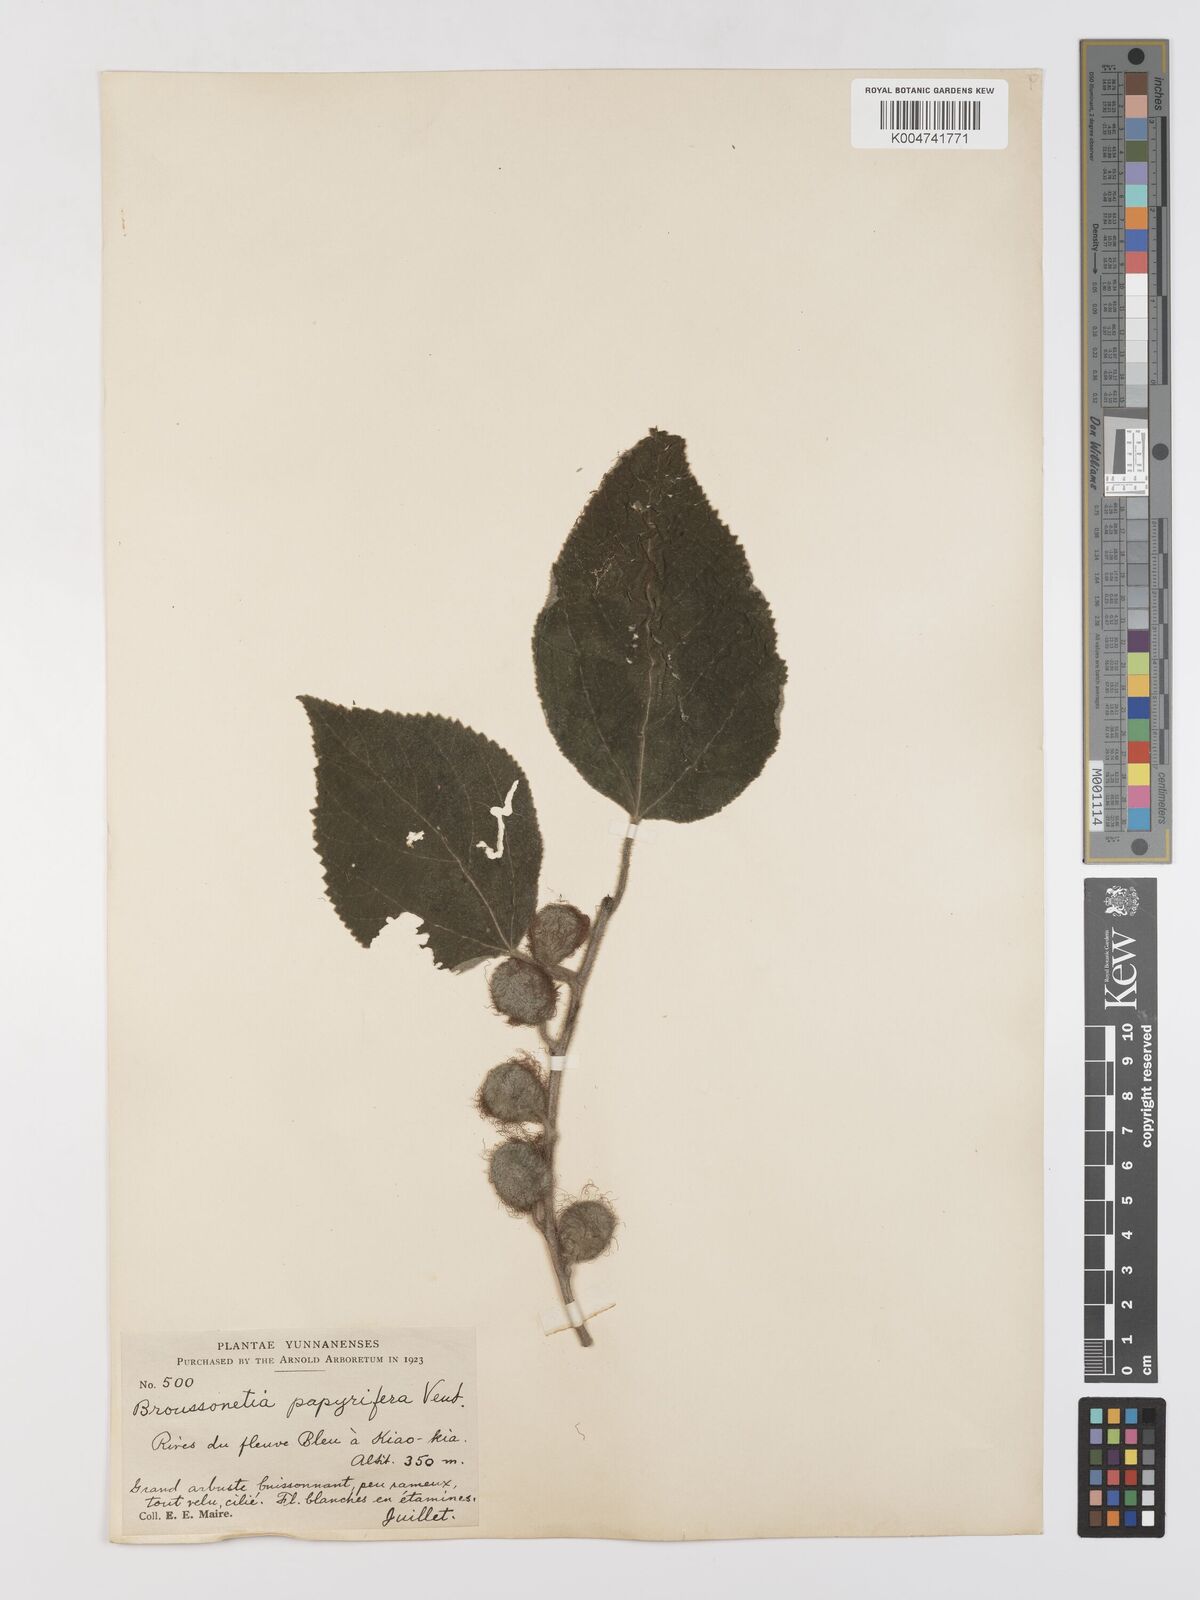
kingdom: Plantae
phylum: Tracheophyta
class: Magnoliopsida
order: Rosales
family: Moraceae
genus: Broussonetia
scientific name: Broussonetia
